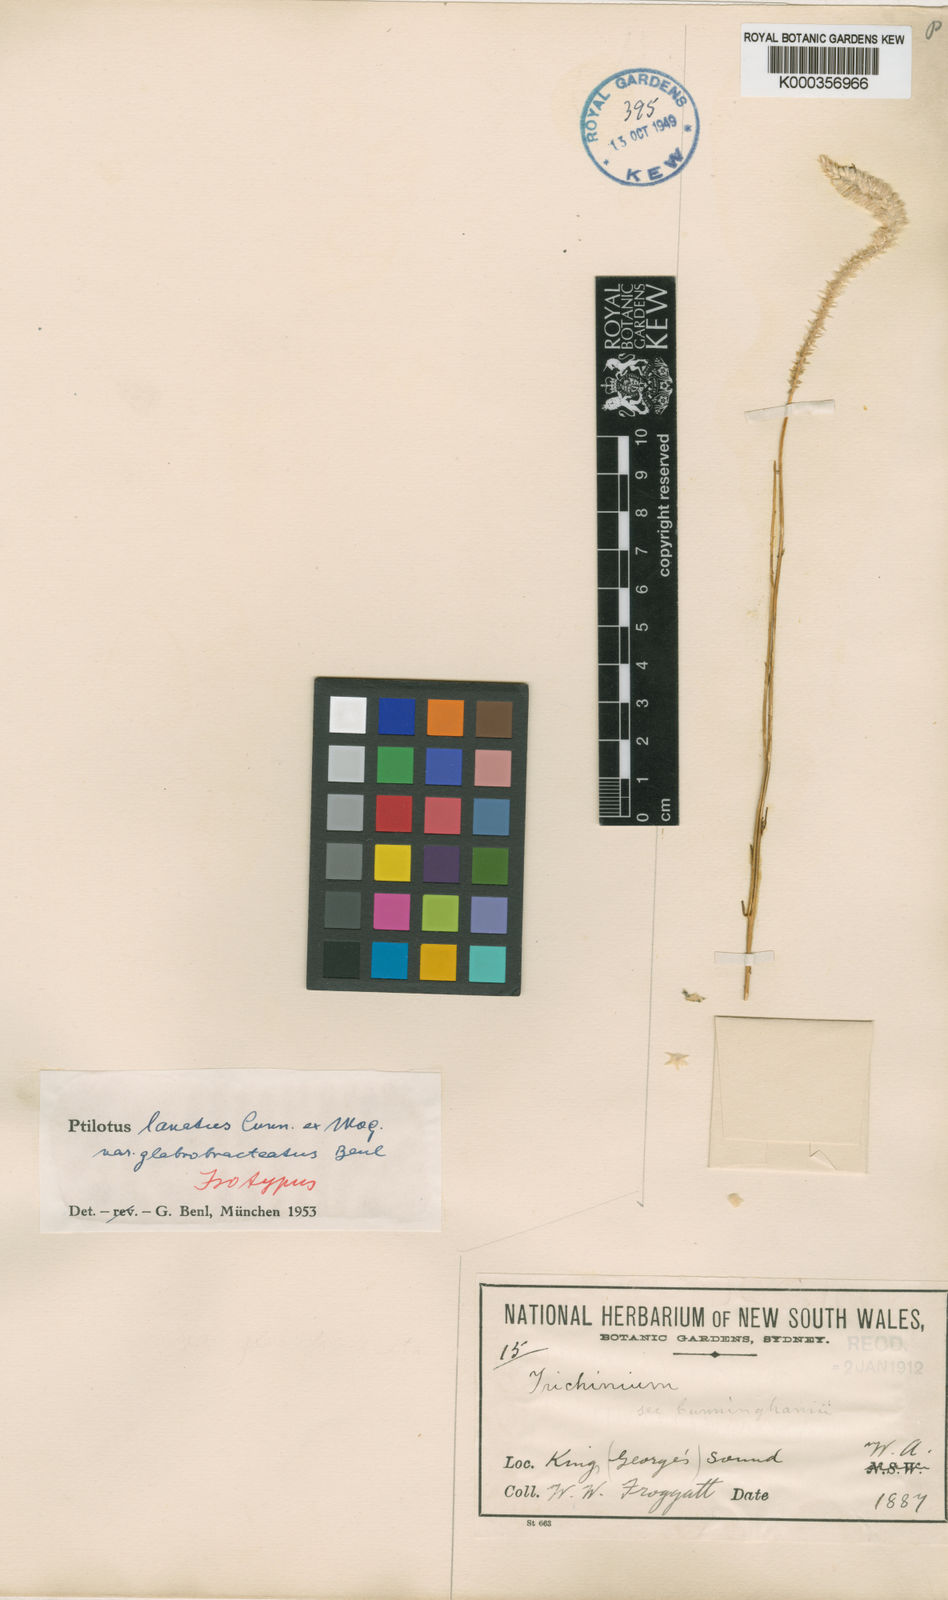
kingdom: Plantae
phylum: Tracheophyta
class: Magnoliopsida
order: Caryophyllales
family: Amaranthaceae
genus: Ptilotus
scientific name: Ptilotus lanatus
